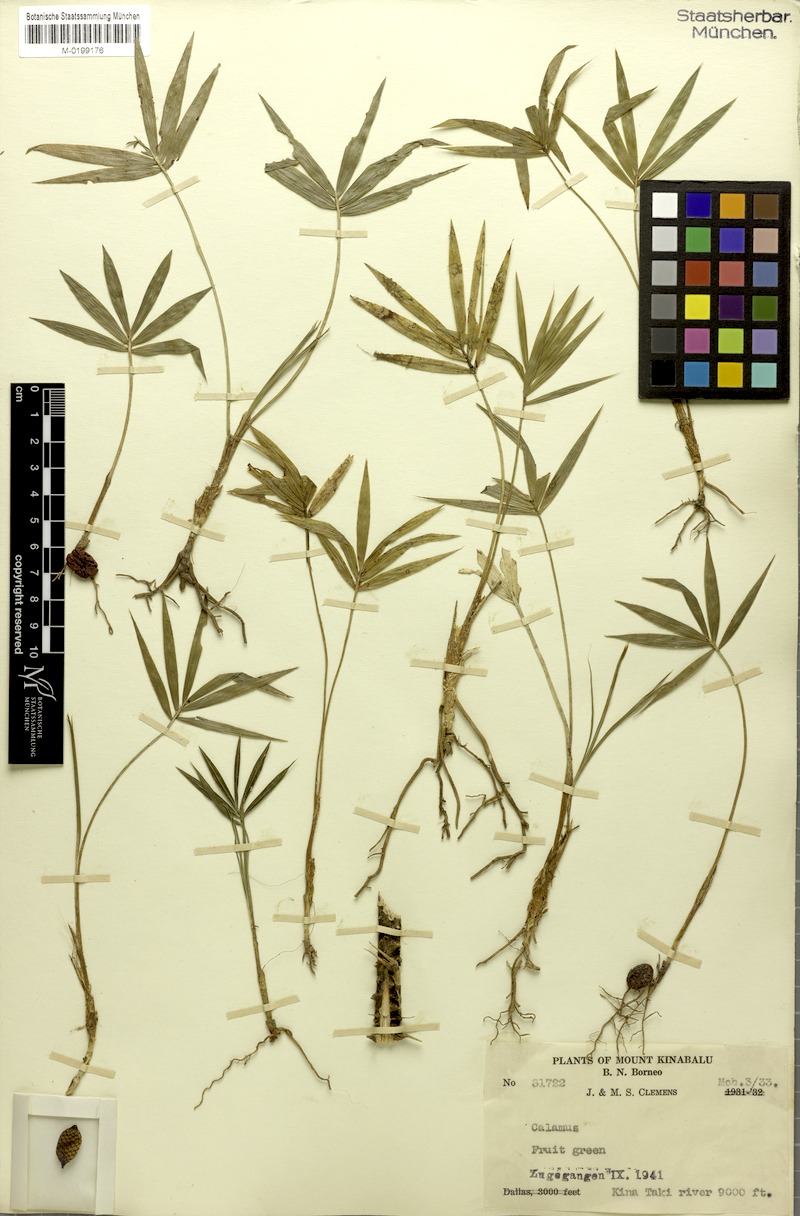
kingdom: Plantae
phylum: Tracheophyta
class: Liliopsida
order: Arecales
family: Arecaceae
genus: Calamus
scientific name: Calamus
